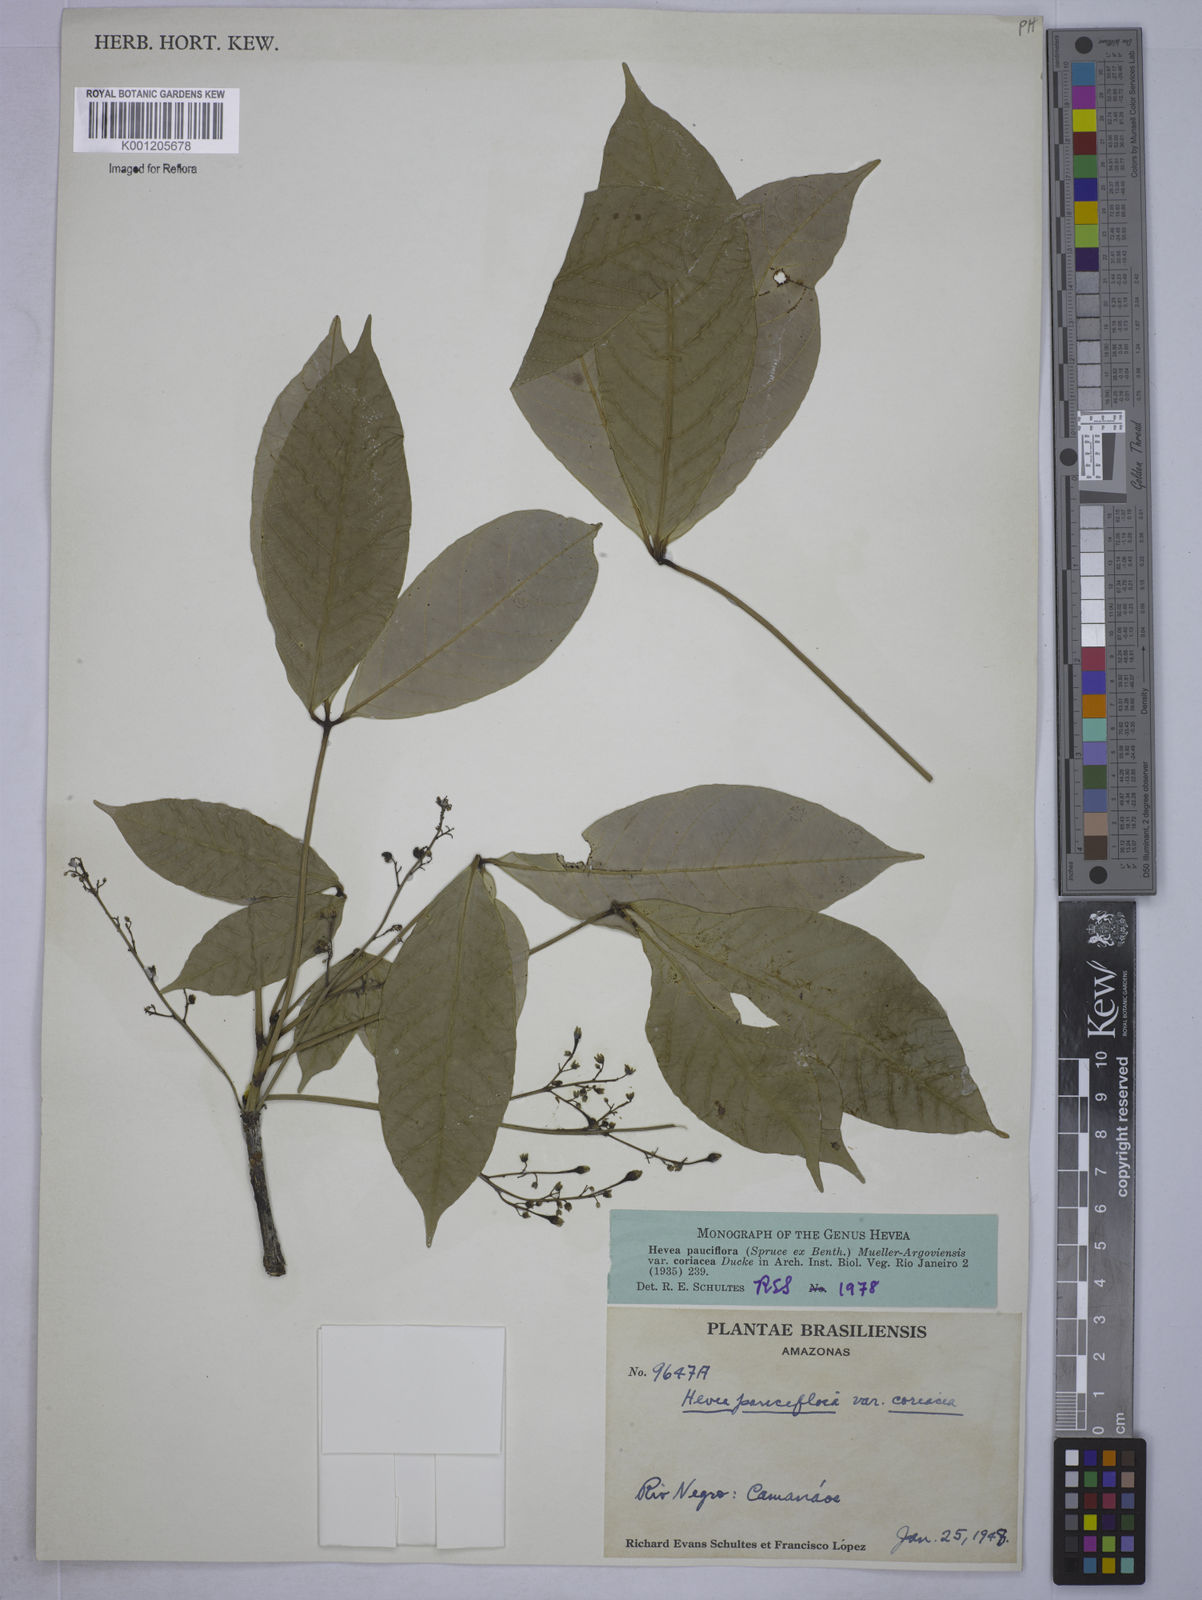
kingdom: Plantae
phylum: Tracheophyta
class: Magnoliopsida
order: Malpighiales
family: Euphorbiaceae
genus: Hevea
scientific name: Hevea pauciflora
